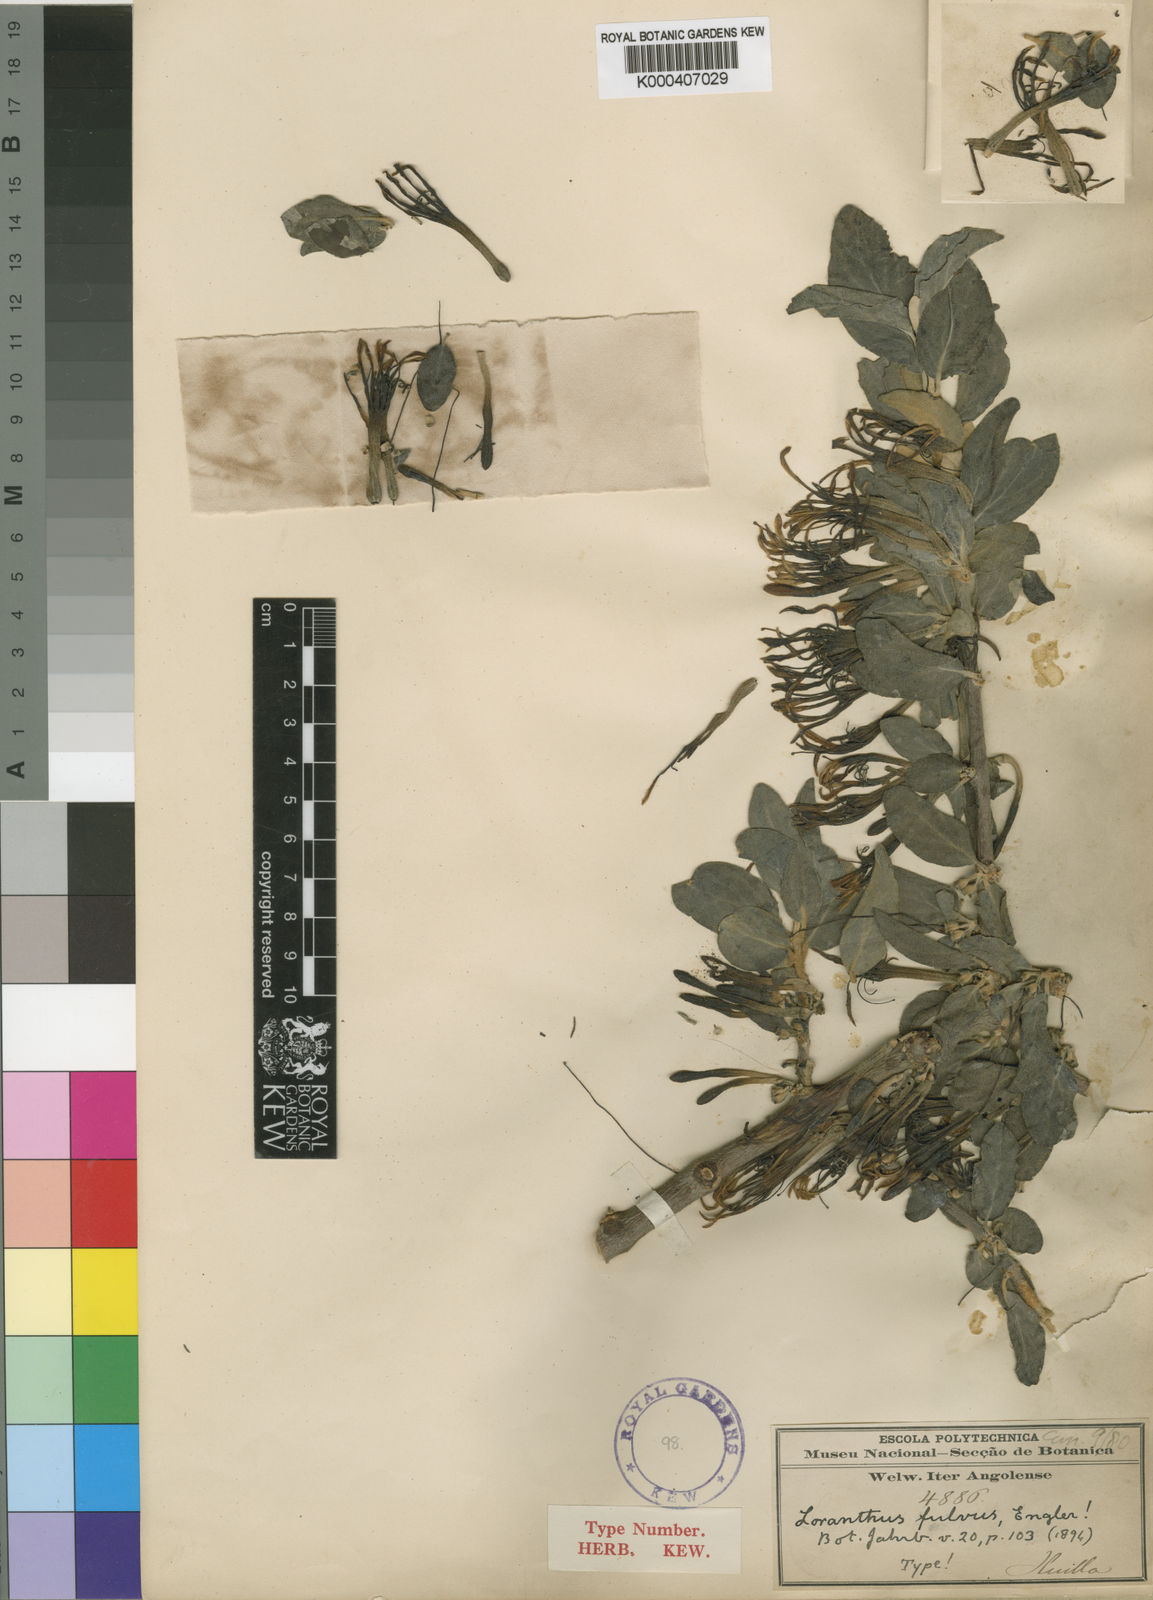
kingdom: Plantae
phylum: Tracheophyta
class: Magnoliopsida
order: Santalales
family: Loranthaceae
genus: Phragmanthera
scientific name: Phragmanthera
